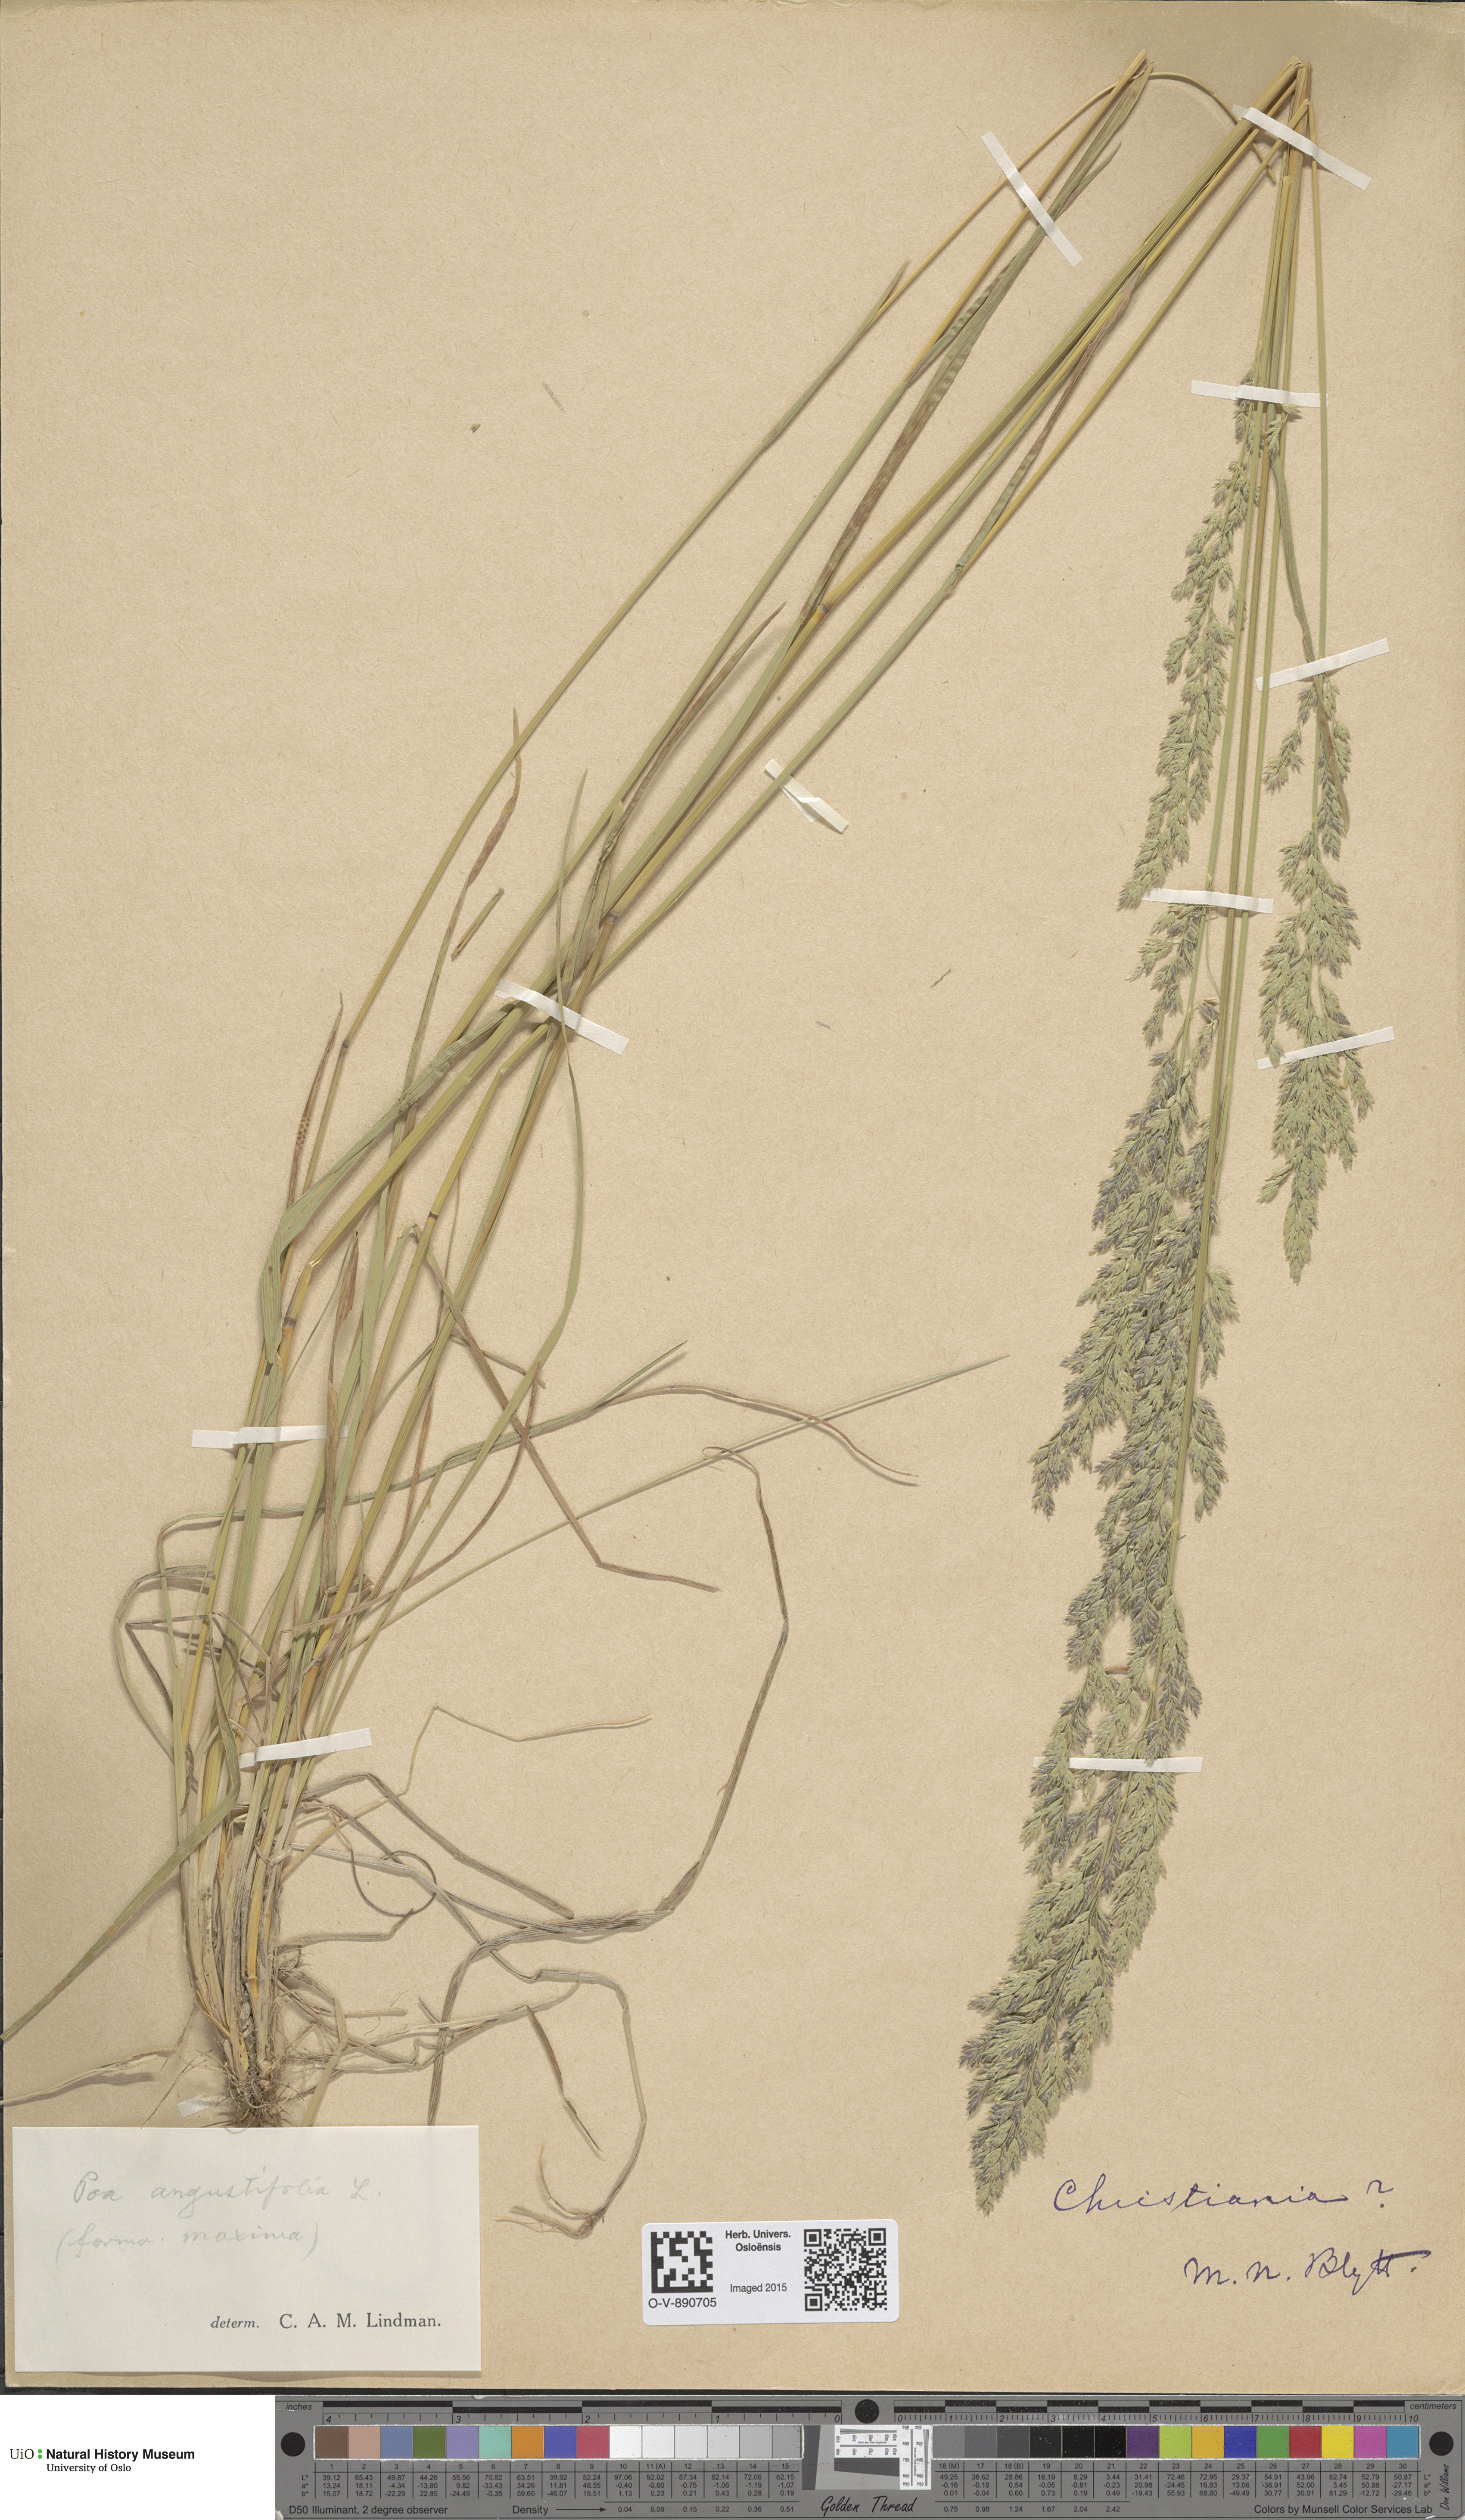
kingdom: Plantae
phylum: Tracheophyta
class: Liliopsida
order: Poales
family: Poaceae
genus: Poa
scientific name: Poa angustifolia
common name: Narrow-leaved meadow-grass
